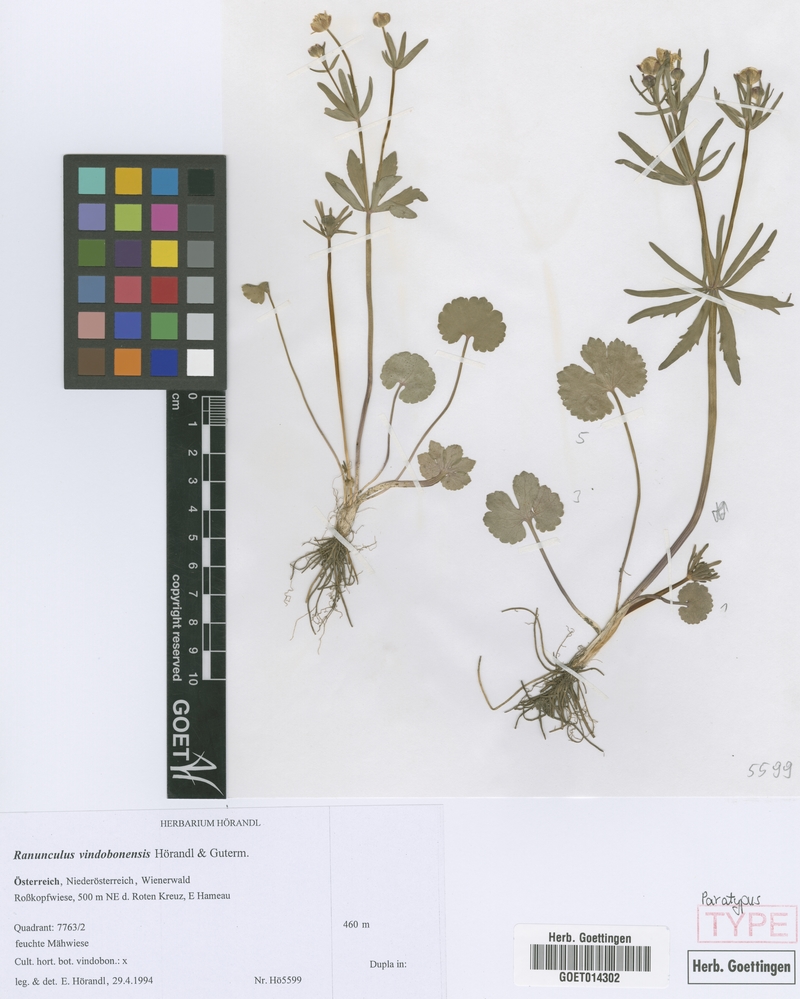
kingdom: Plantae
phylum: Tracheophyta
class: Magnoliopsida
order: Ranunculales
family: Ranunculaceae
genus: Ranunculus
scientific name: Ranunculus vindobonensis
